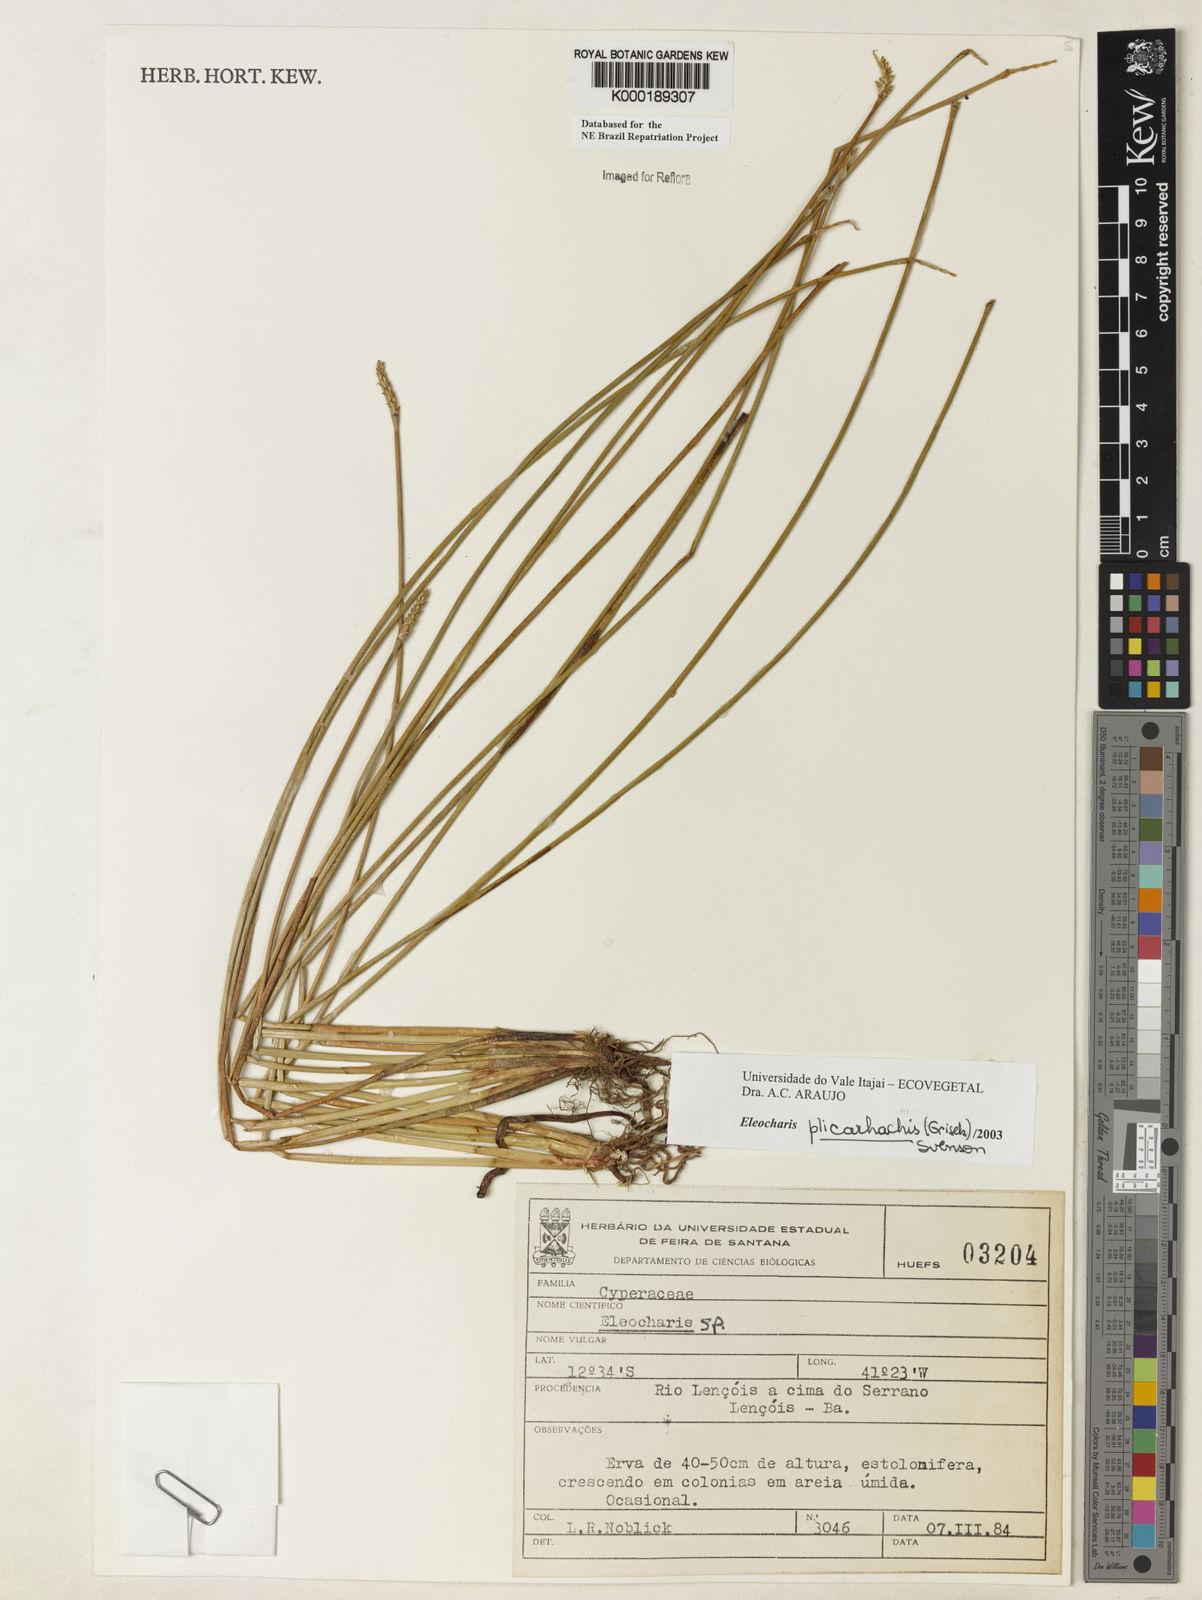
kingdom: Plantae
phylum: Tracheophyta
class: Liliopsida
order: Poales
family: Cyperaceae
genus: Eleocharis
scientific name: Eleocharis plicarhachis
